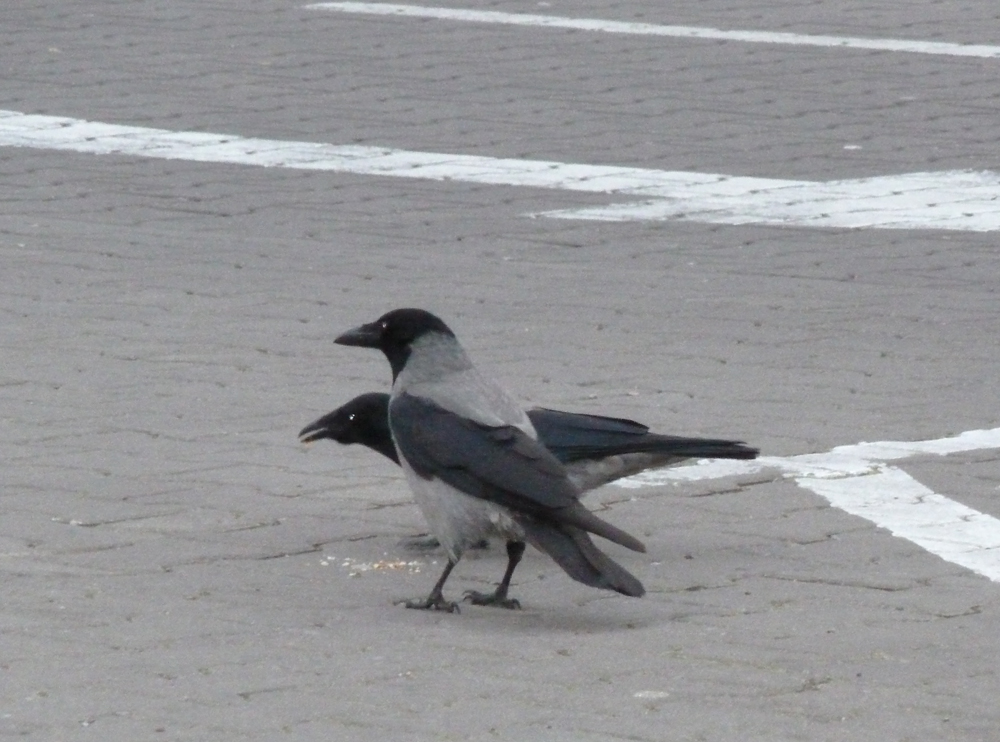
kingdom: Animalia
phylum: Chordata
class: Aves
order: Passeriformes
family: Corvidae
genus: Corvus
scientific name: Corvus cornix
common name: Hooded crow
